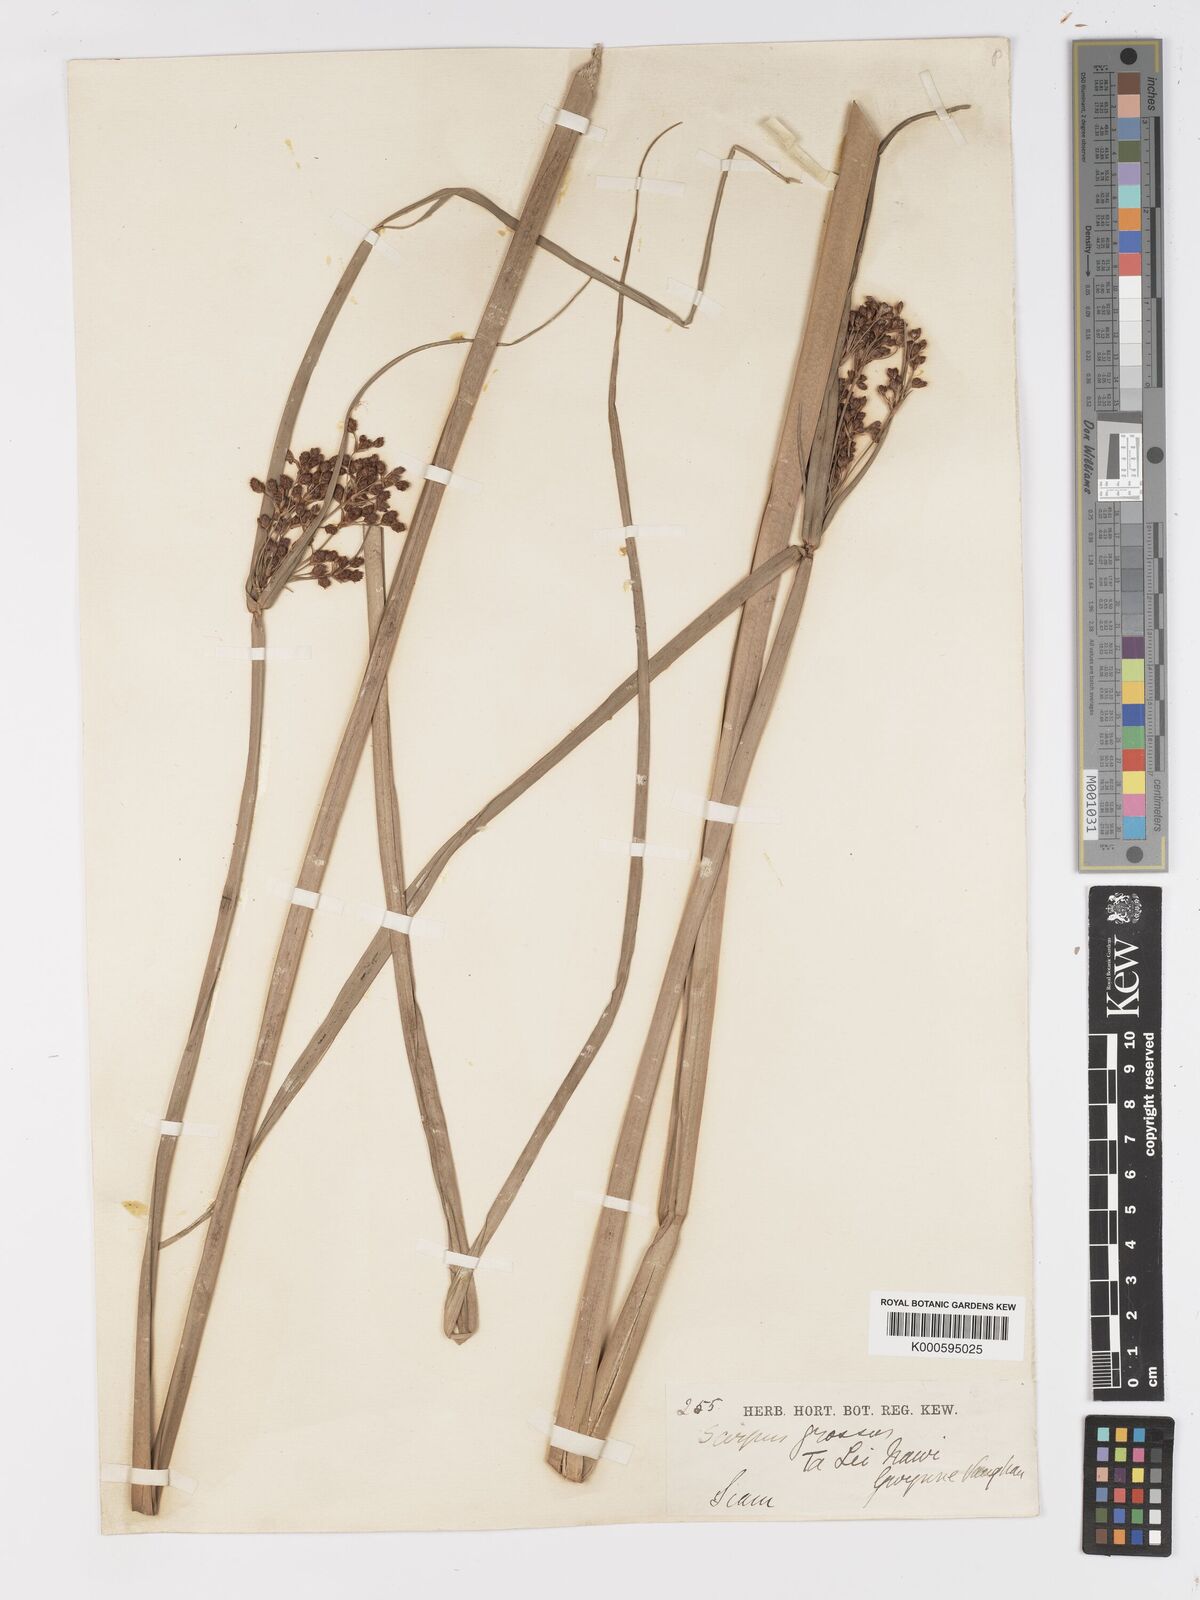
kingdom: Plantae
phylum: Tracheophyta
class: Liliopsida
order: Poales
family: Cyperaceae
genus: Actinoscirpus
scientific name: Actinoscirpus grossus
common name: Giant bur rush
